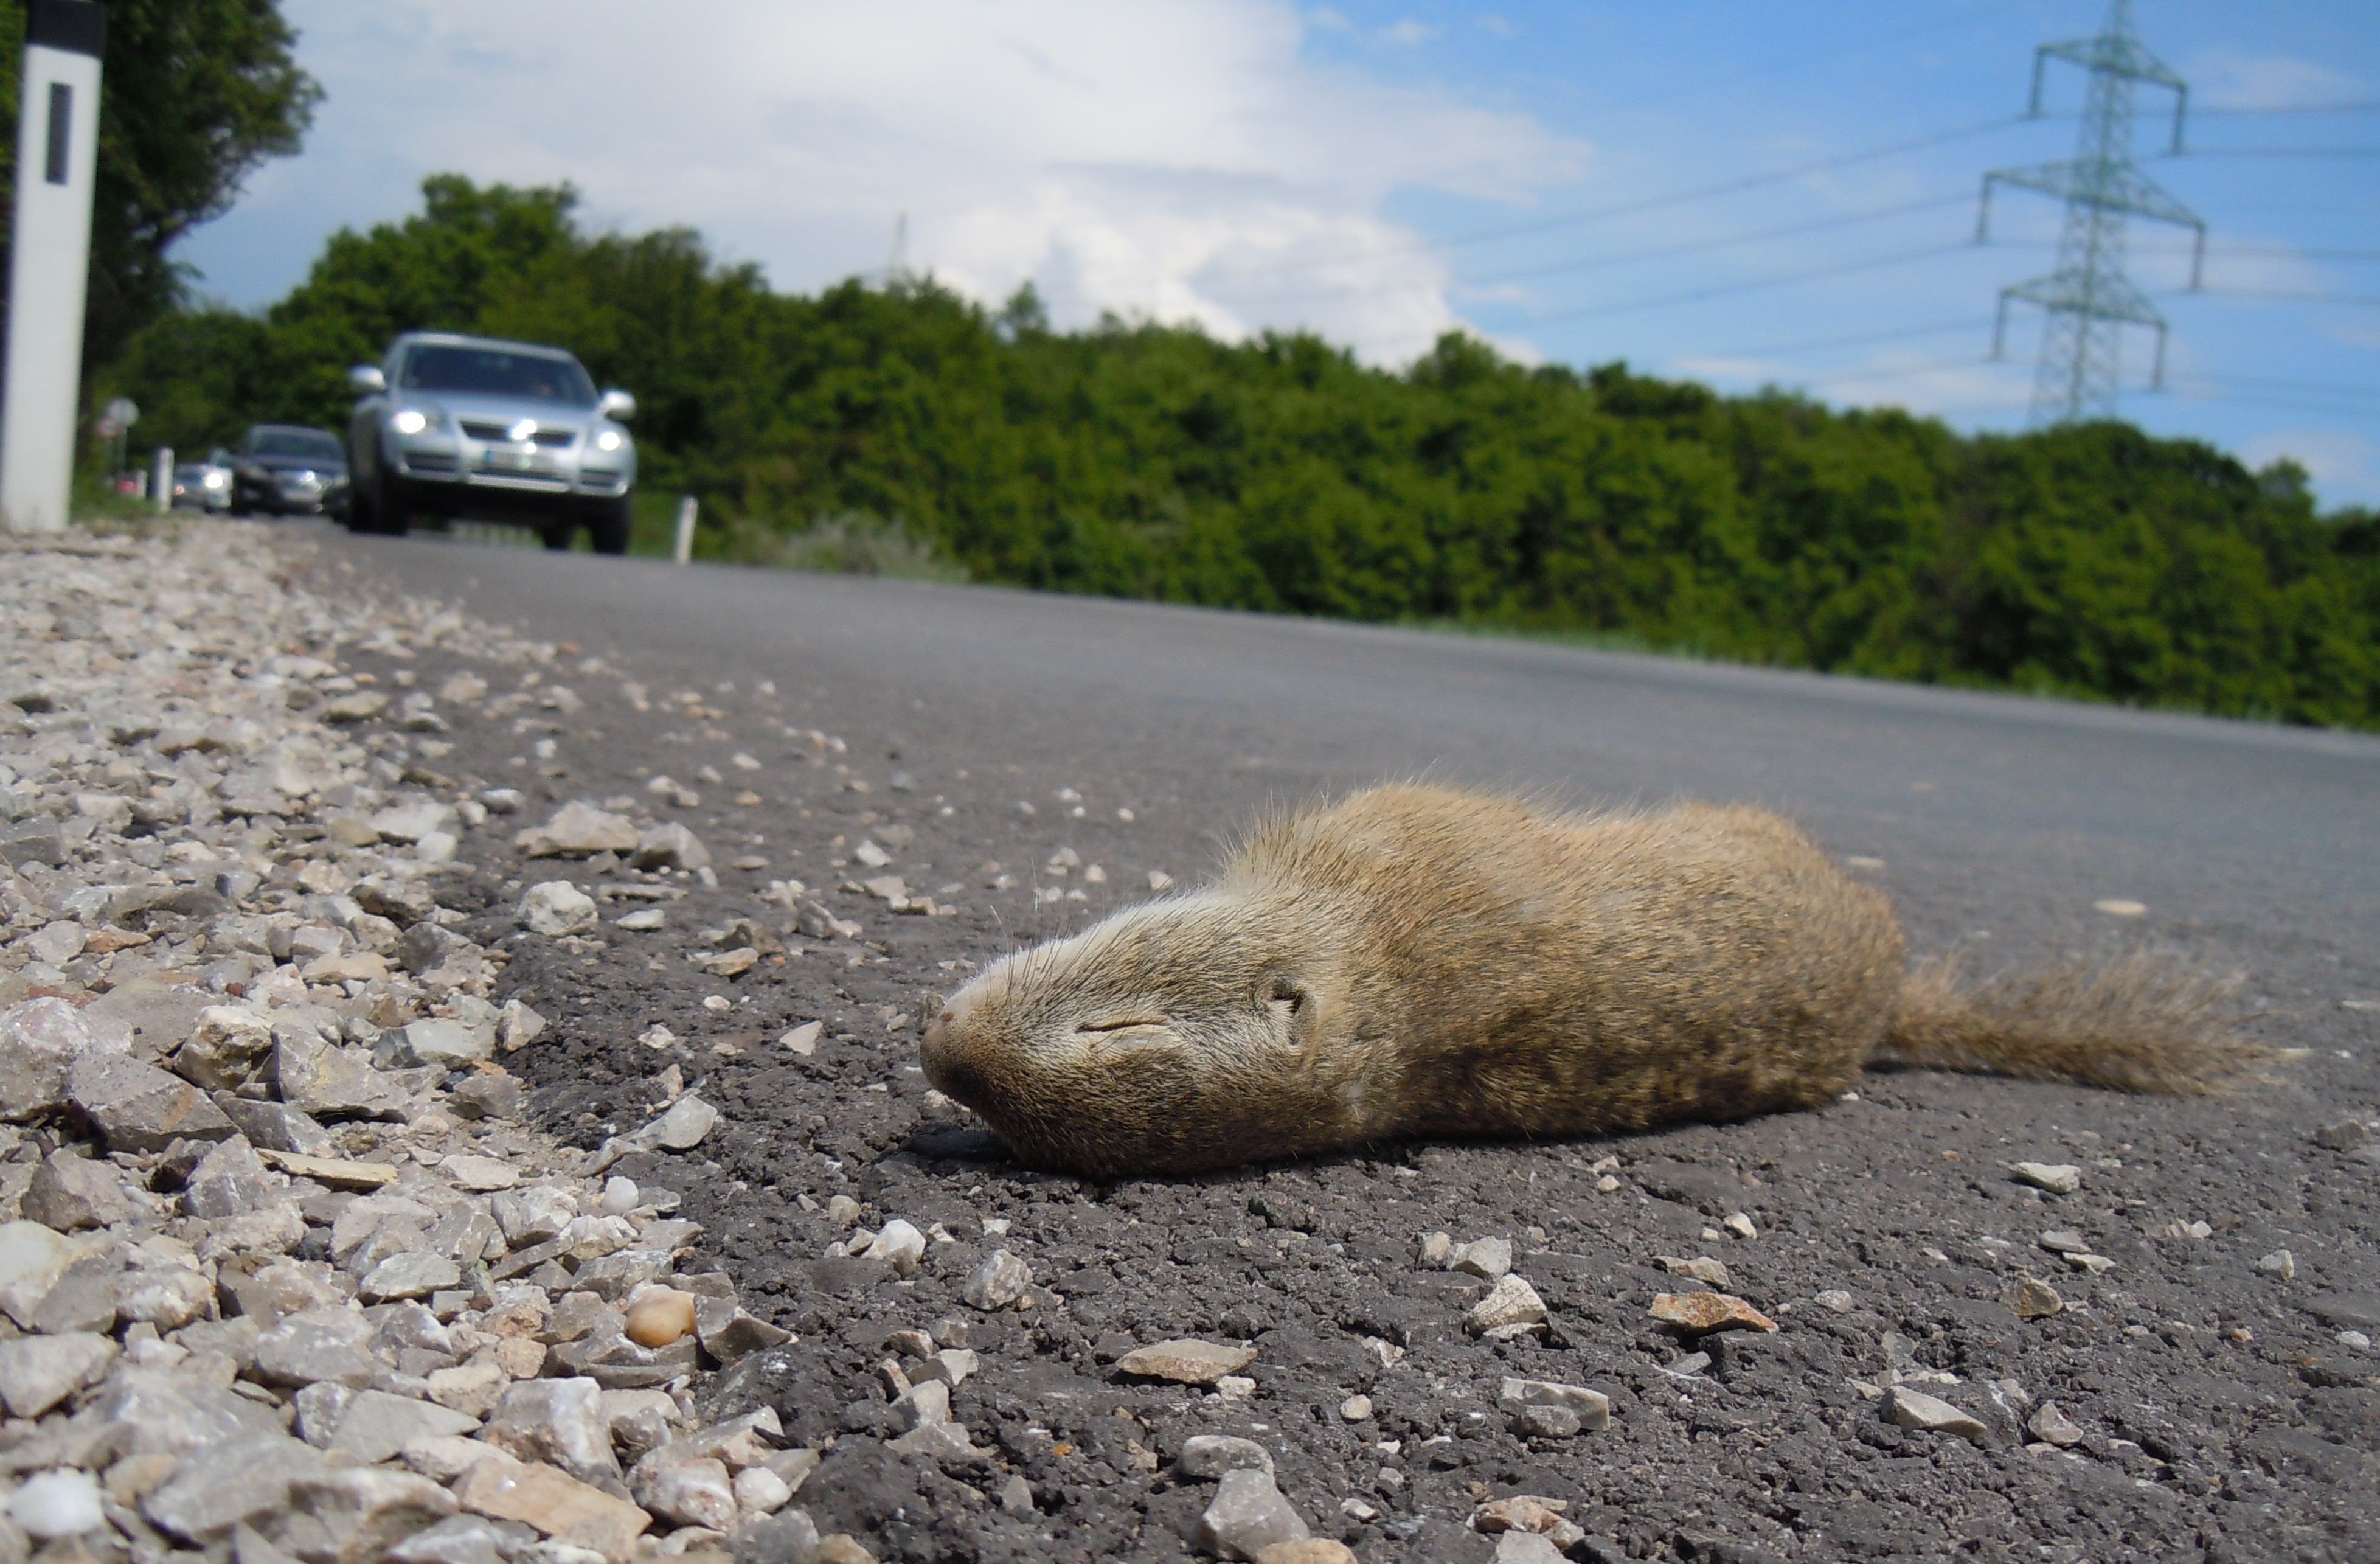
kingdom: Animalia
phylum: Chordata
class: Mammalia
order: Rodentia
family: Sciuridae
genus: Spermophilus
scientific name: Spermophilus citellus
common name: European ground squirrel
